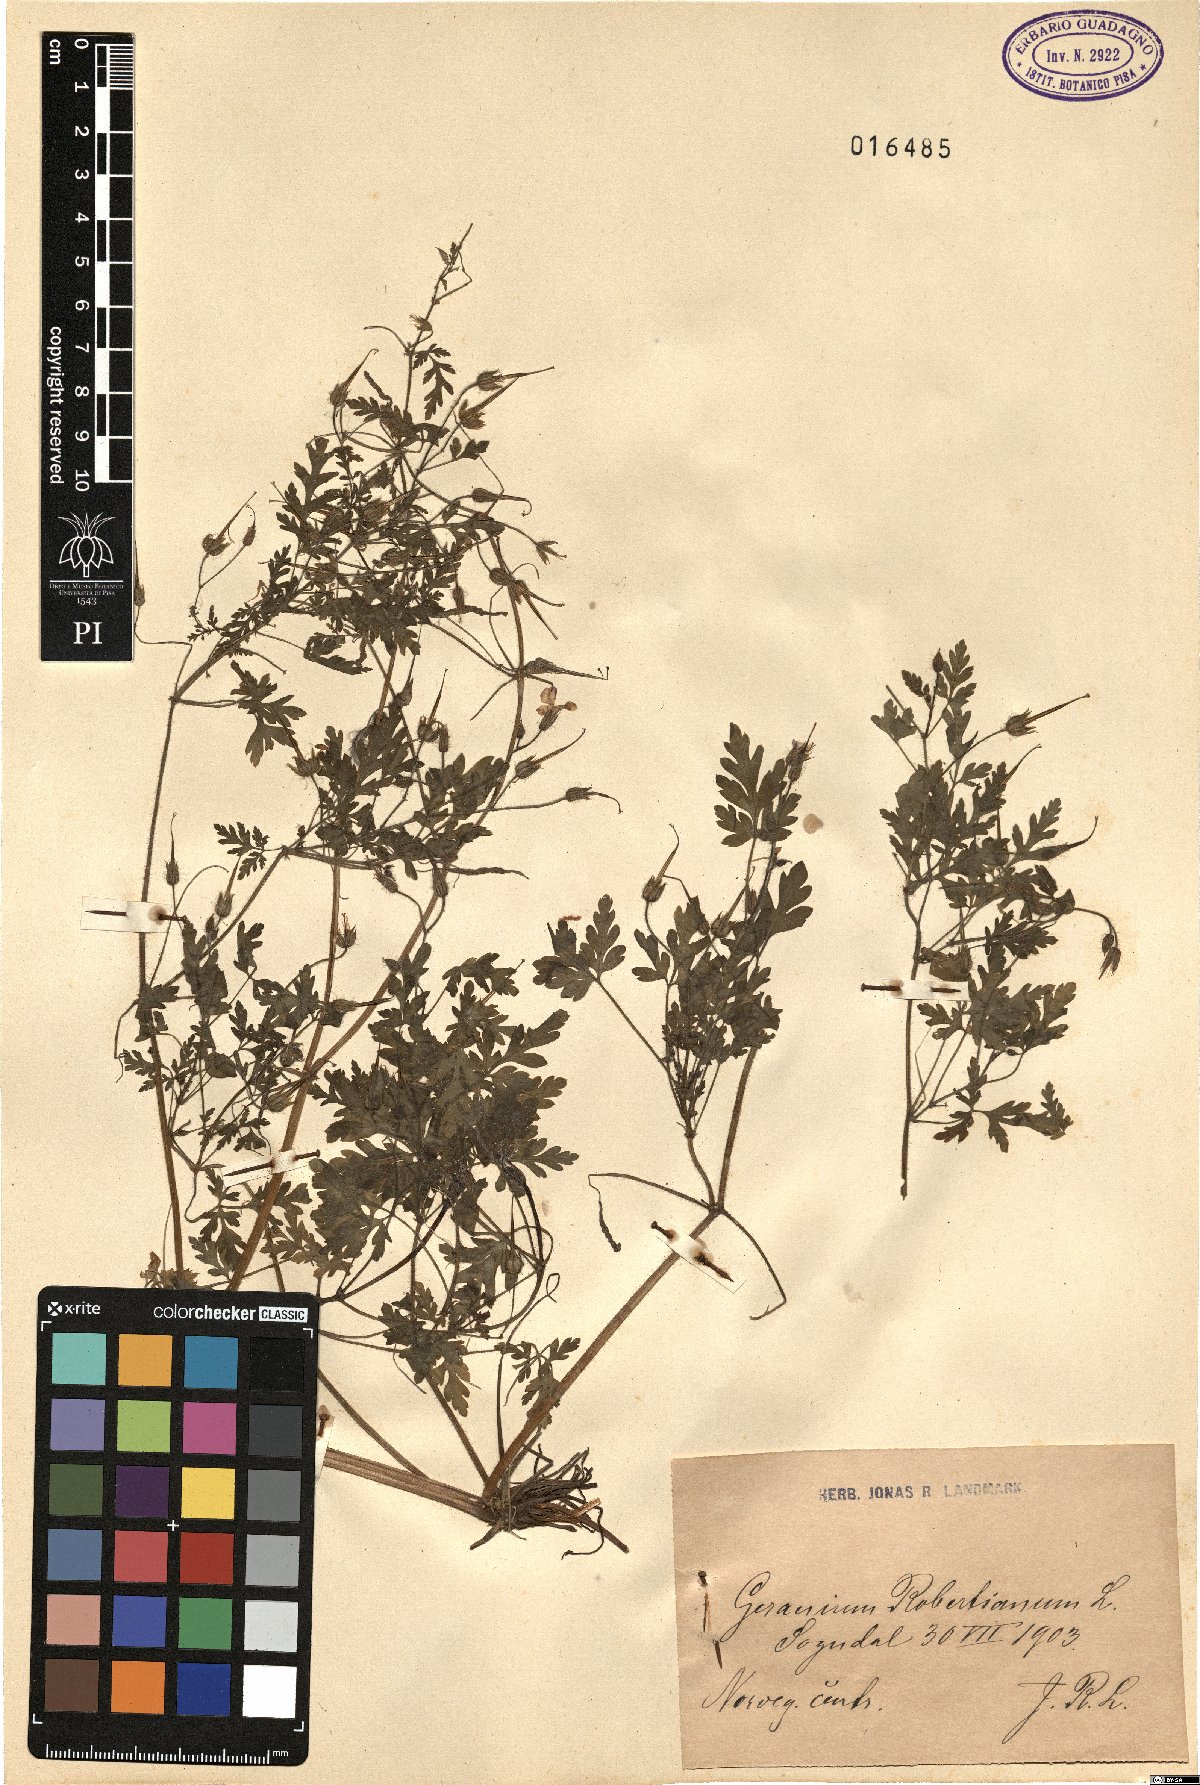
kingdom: Plantae
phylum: Tracheophyta
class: Magnoliopsida
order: Geraniales
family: Geraniaceae
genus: Geranium
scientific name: Geranium robertianum
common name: Herb-robert
